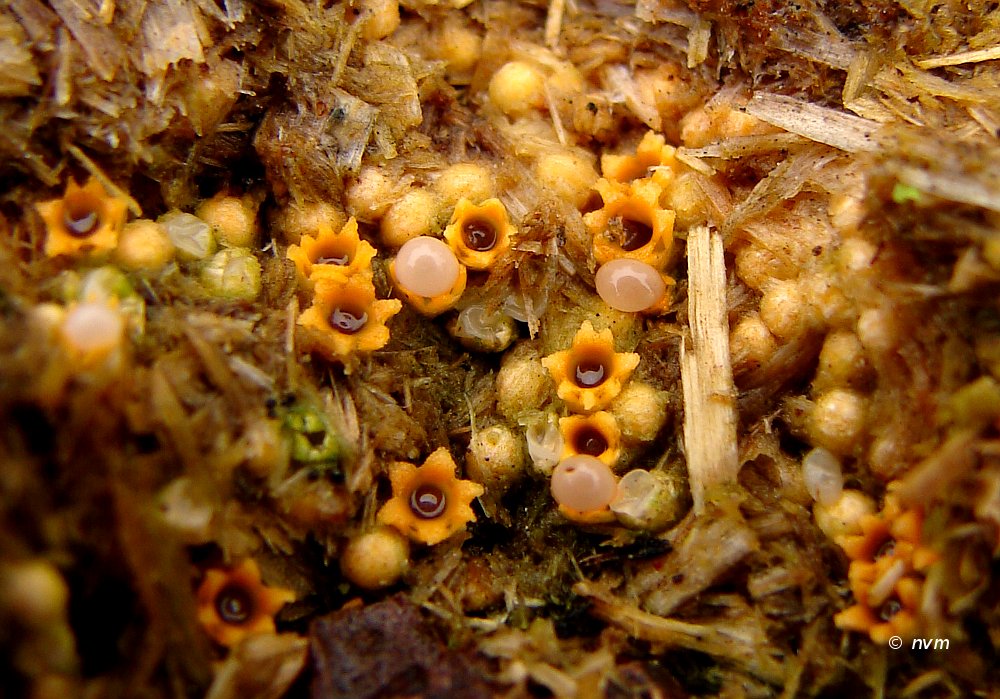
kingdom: Fungi
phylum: Basidiomycota
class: Agaricomycetes
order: Geastrales
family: Geastraceae
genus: Sphaerobolus
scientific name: Sphaerobolus stellatus
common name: bombekaster
